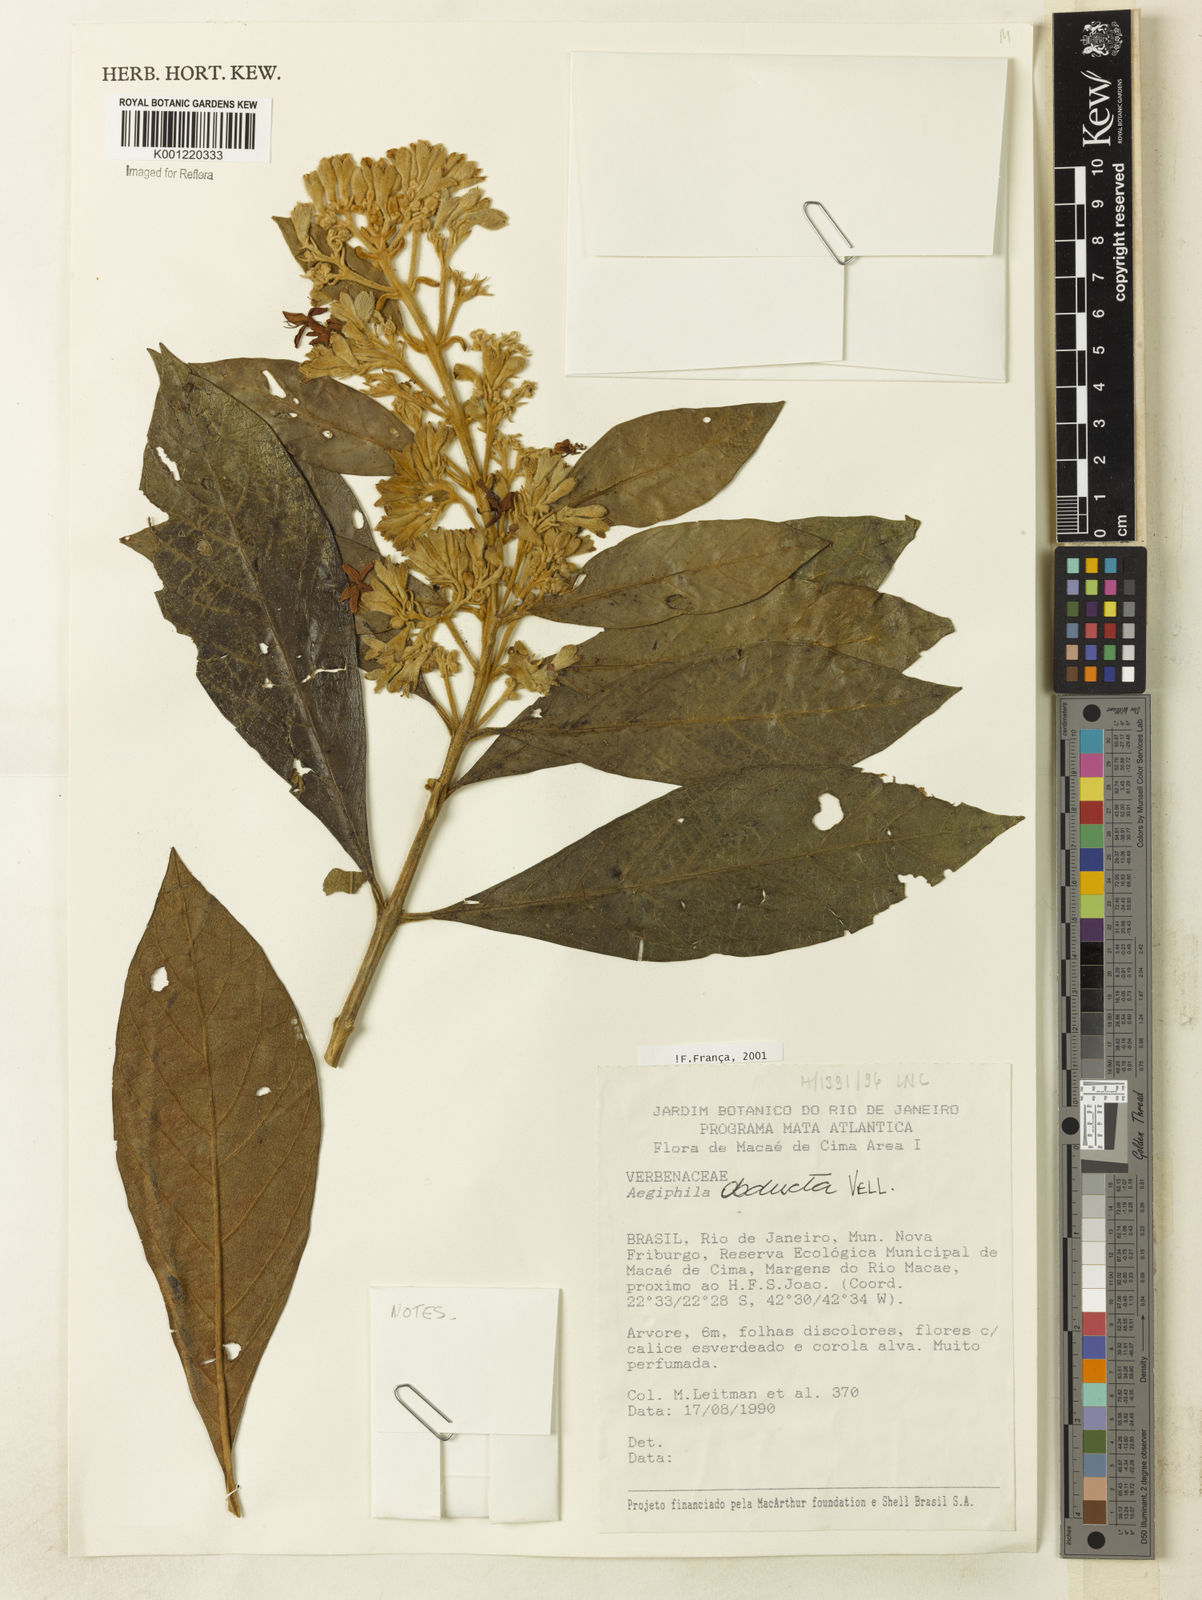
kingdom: Plantae
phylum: Tracheophyta
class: Magnoliopsida
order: Lamiales
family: Lamiaceae
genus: Aegiphila
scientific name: Aegiphila obducta
